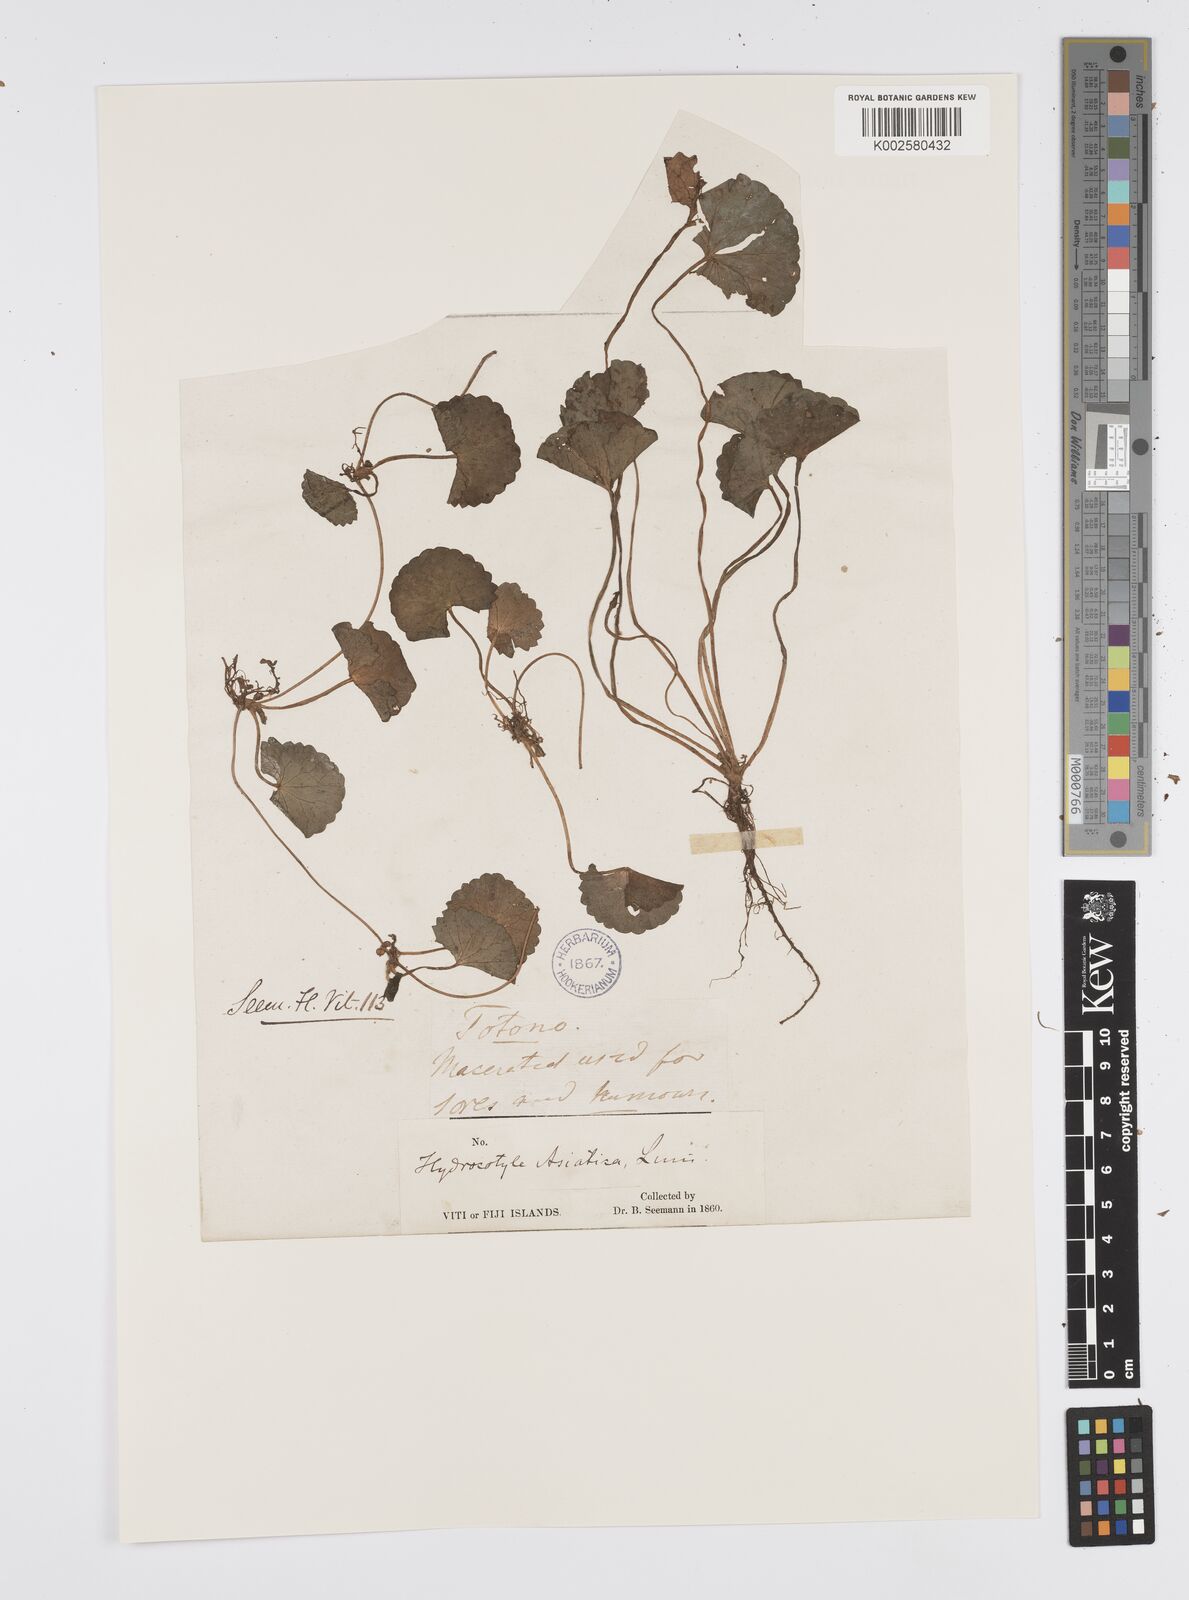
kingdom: Plantae
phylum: Tracheophyta
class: Magnoliopsida
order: Apiales
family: Apiaceae
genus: Centella
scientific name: Centella asiatica
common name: Spadeleaf
